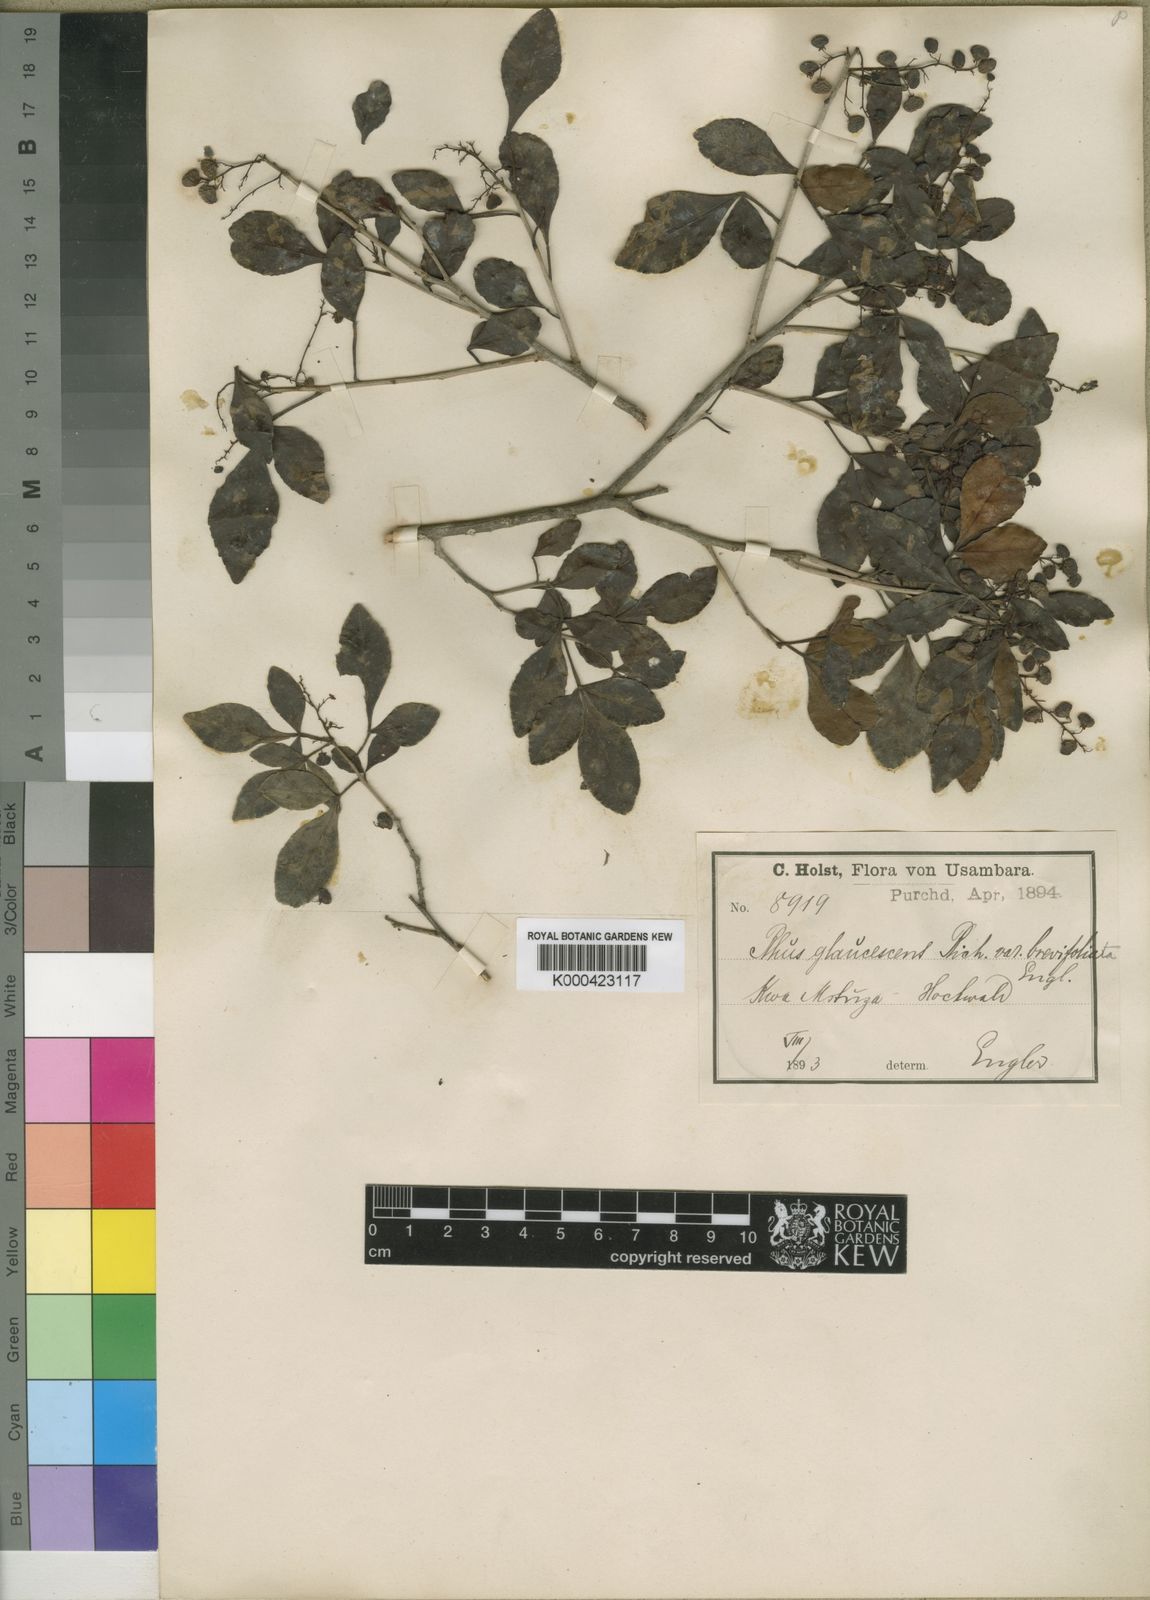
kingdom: Plantae
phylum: Tracheophyta
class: Magnoliopsida
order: Sapindales
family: Anacardiaceae
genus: Searsia
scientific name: Searsia natalensis
